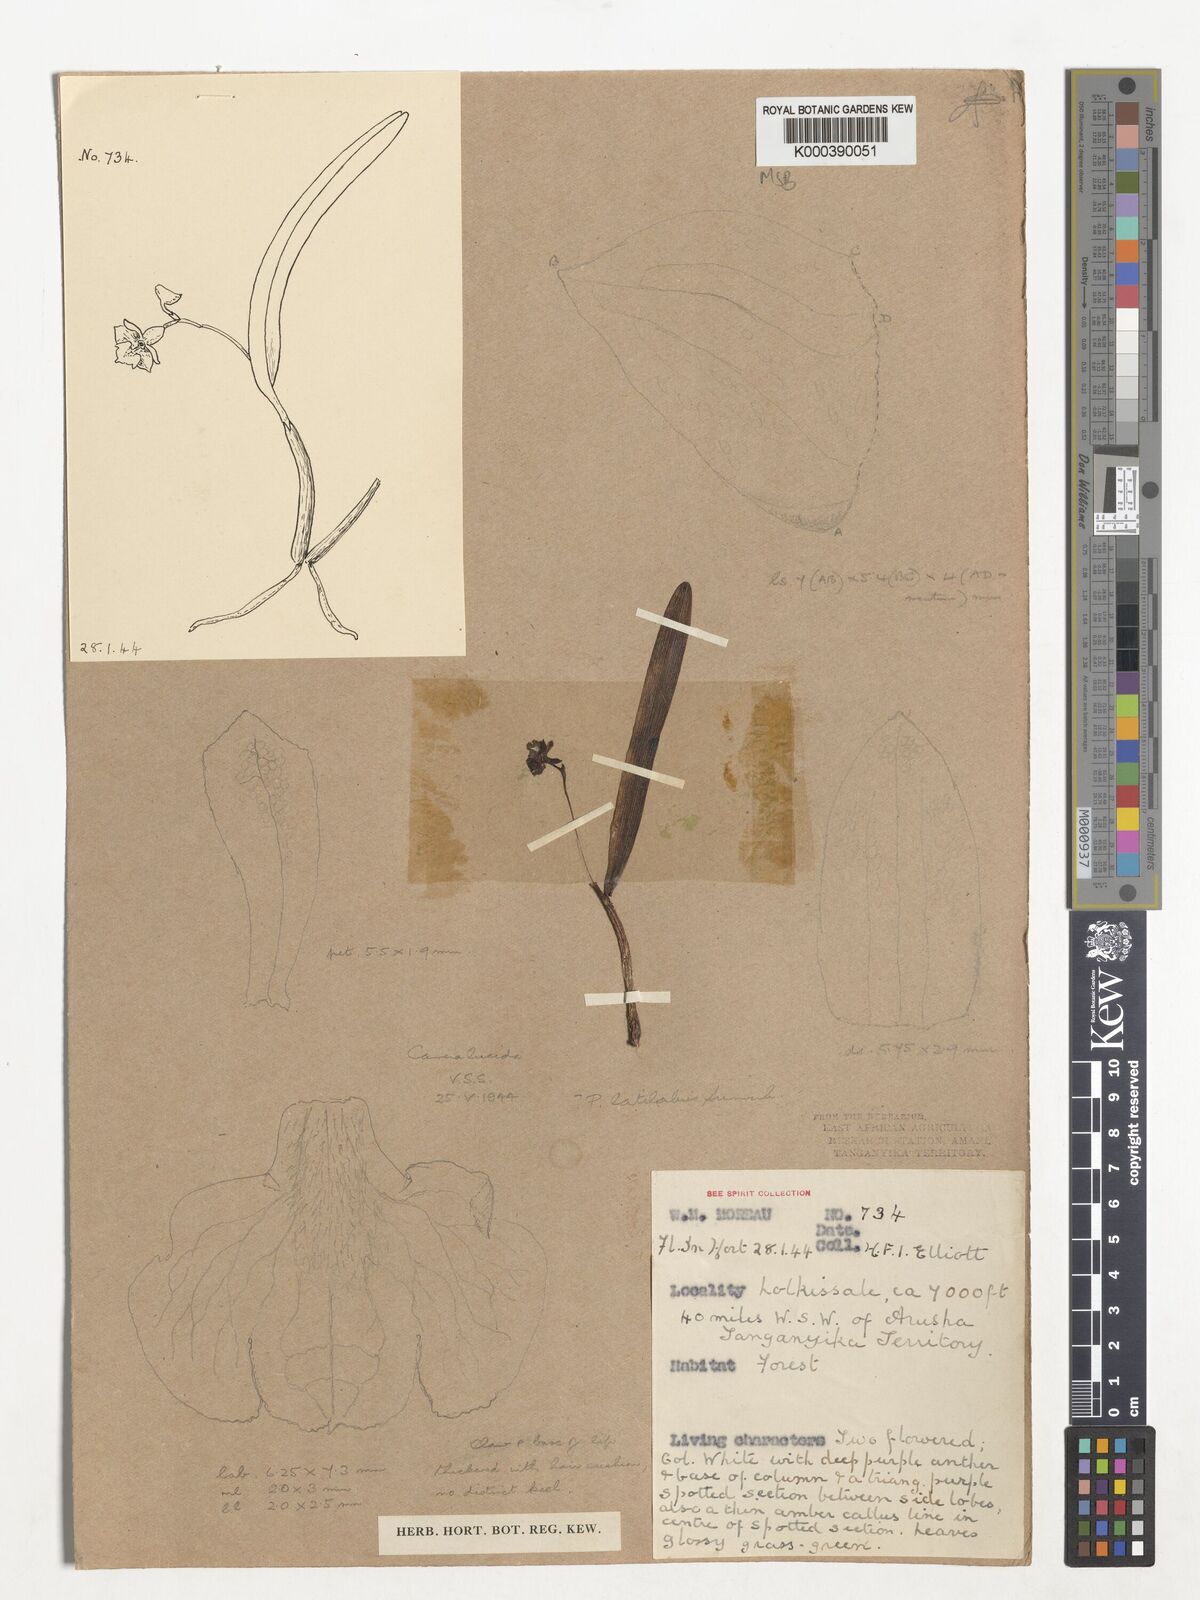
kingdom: Plantae
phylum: Tracheophyta
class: Liliopsida
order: Asparagales
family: Orchidaceae
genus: Polystachya
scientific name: Polystachya caespitifica
